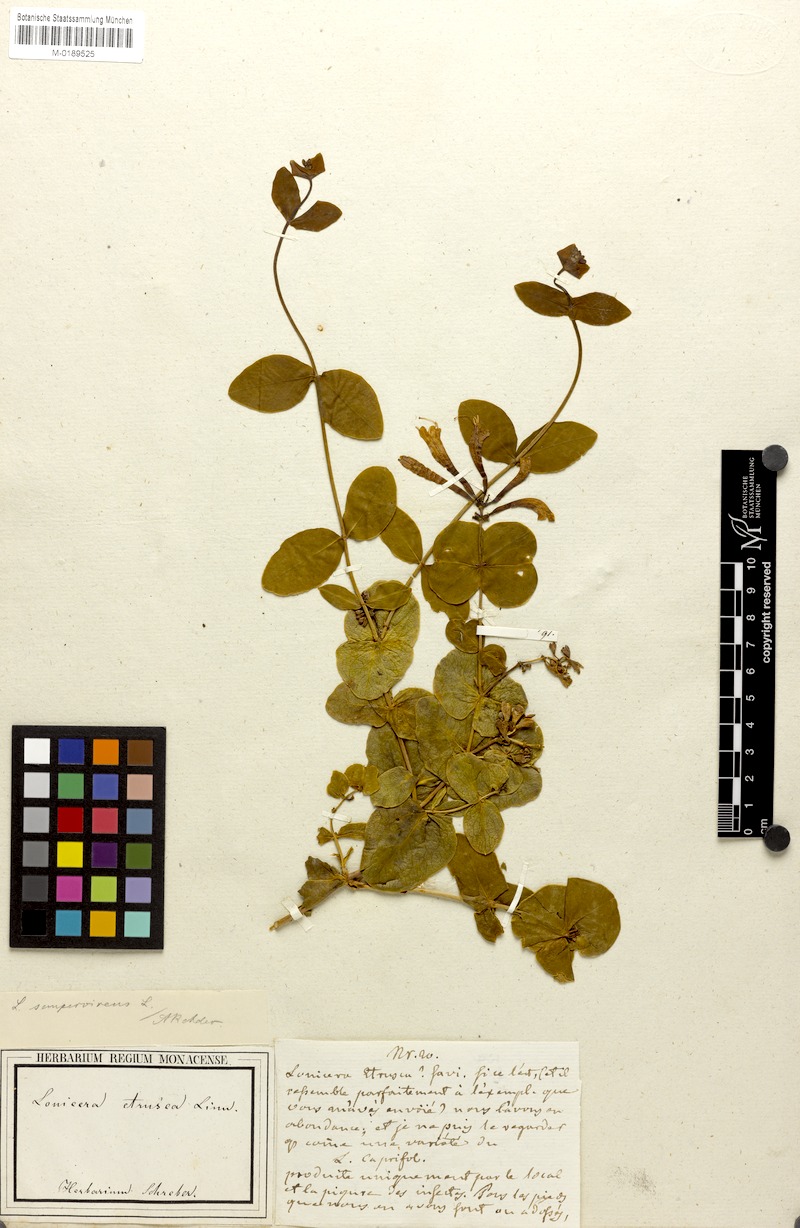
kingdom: Plantae
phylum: Tracheophyta
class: Magnoliopsida
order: Dipsacales
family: Caprifoliaceae
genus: Lonicera
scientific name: Lonicera sempervirens
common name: Coral honeysuckle
